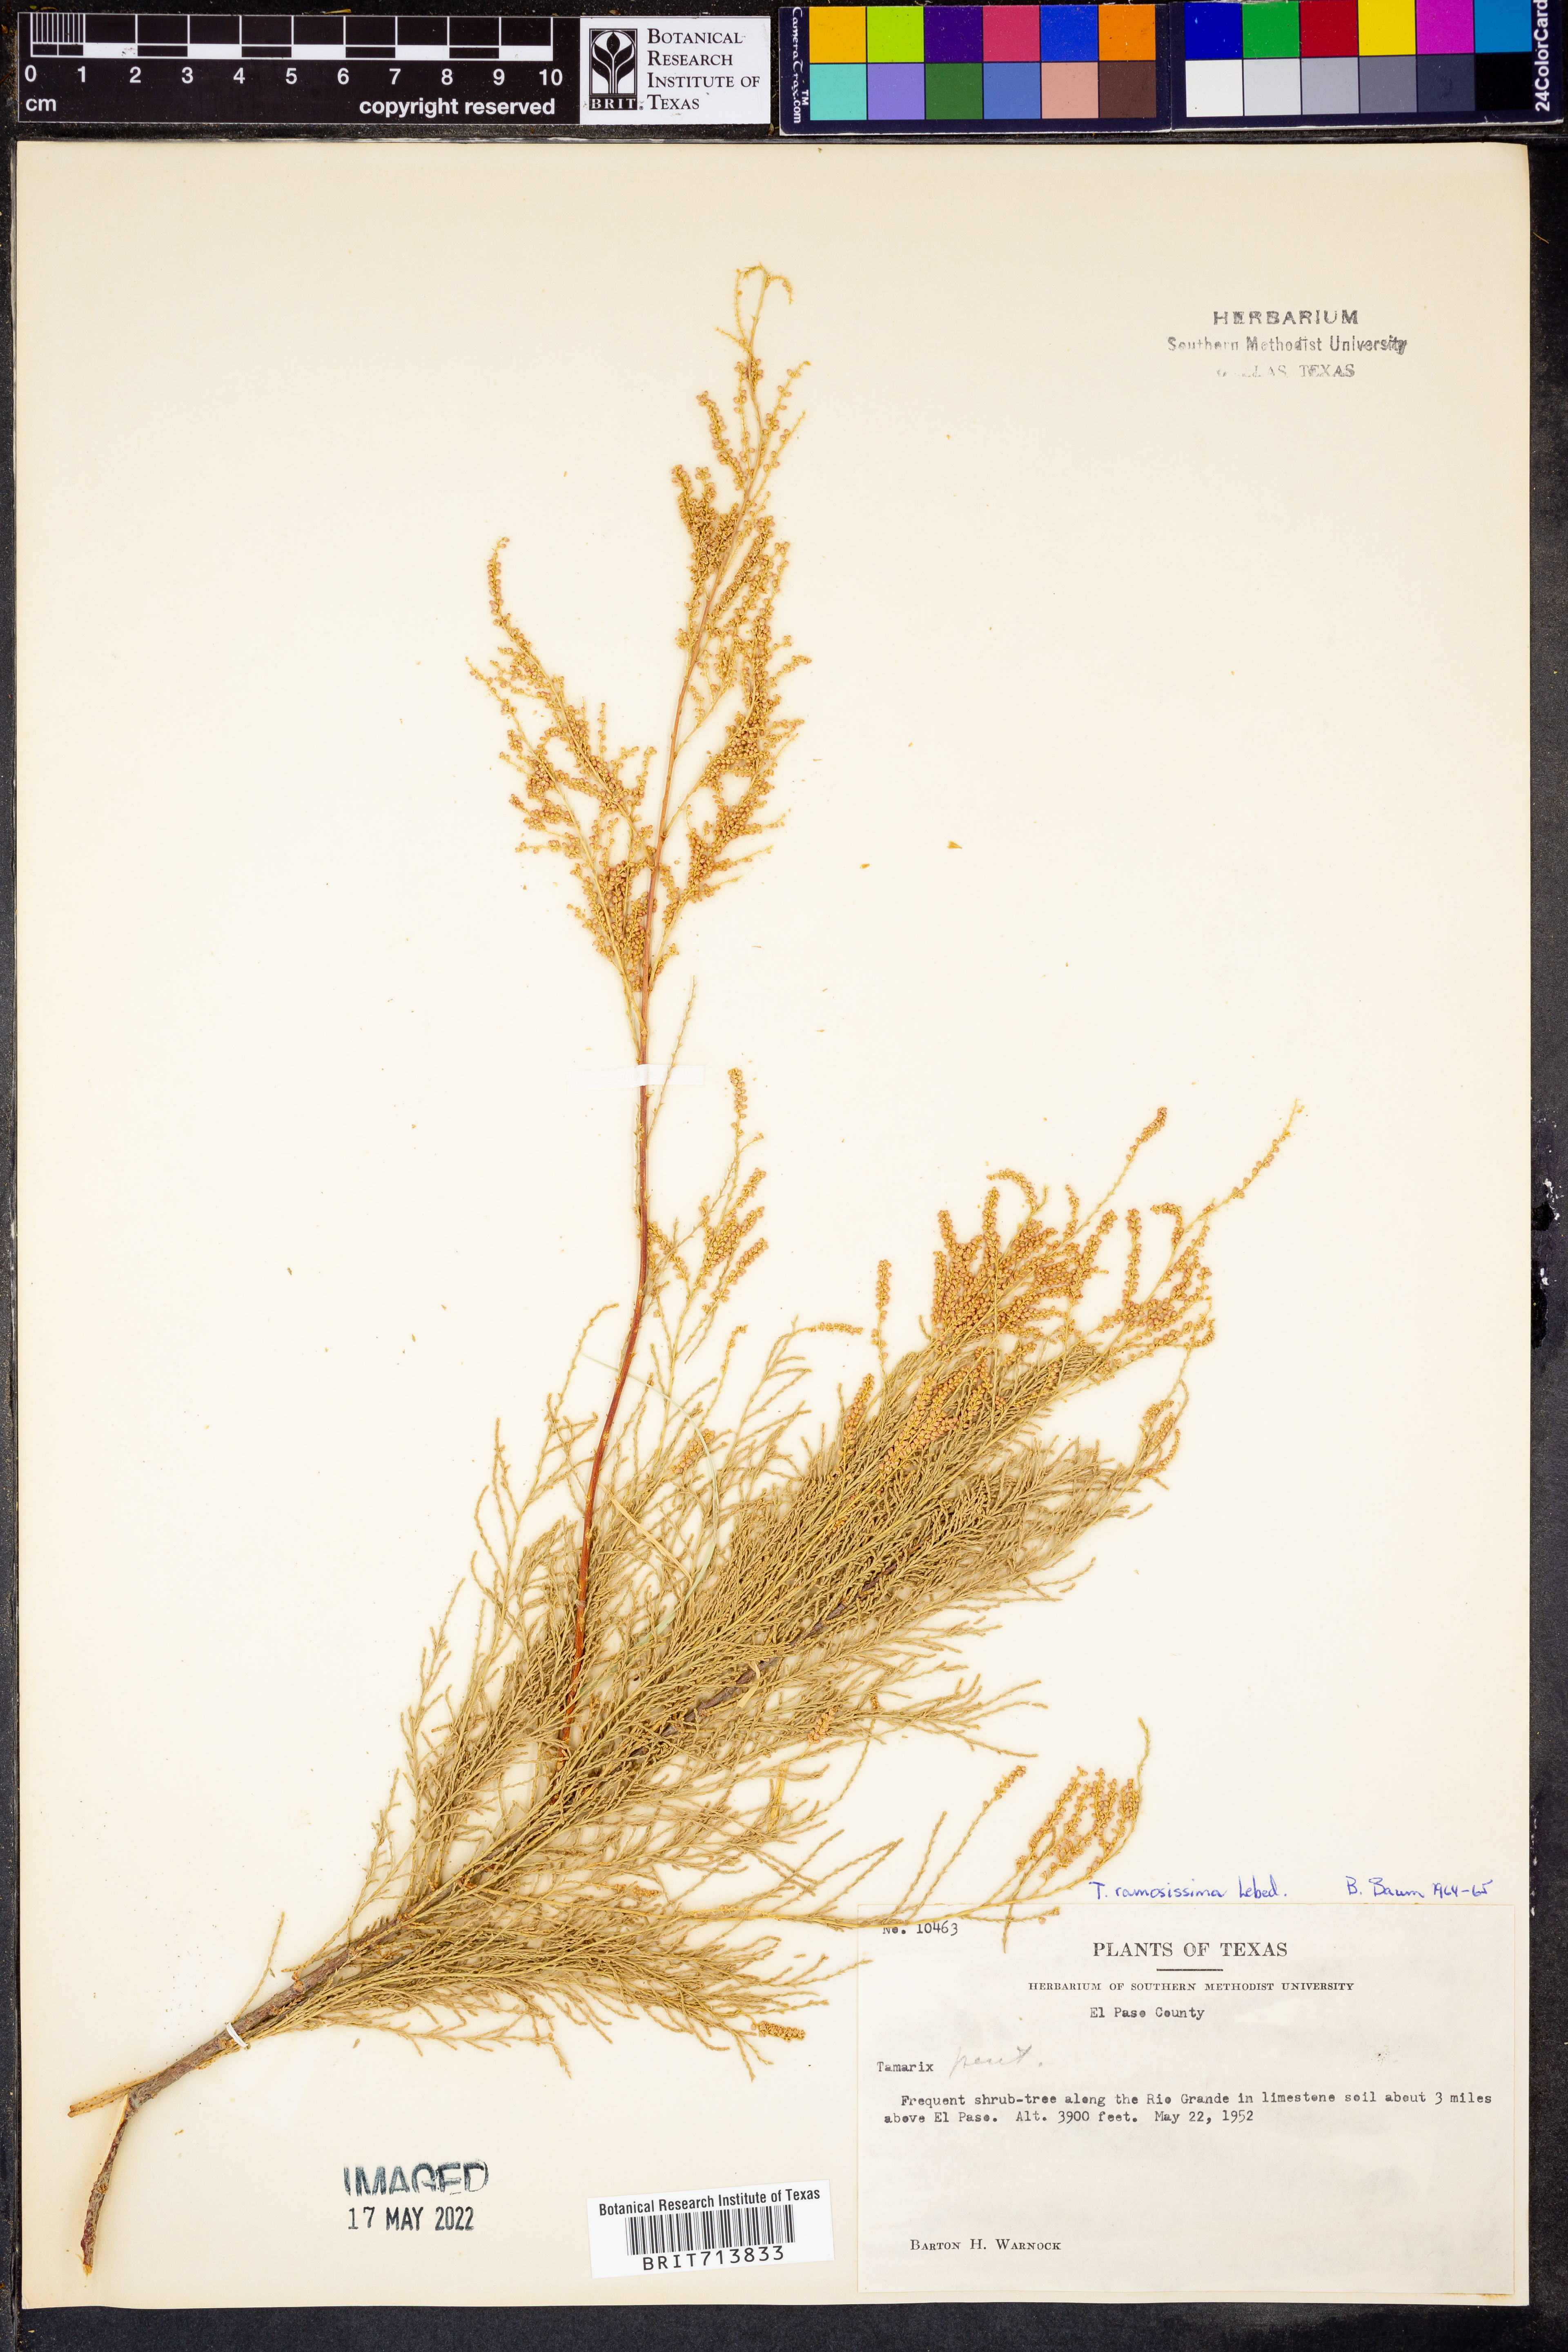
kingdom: Plantae
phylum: Tracheophyta
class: Magnoliopsida
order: Caryophyllales
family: Tamaricaceae
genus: Tamarix
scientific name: Tamarix ramosissima
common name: Pink tamarisk
